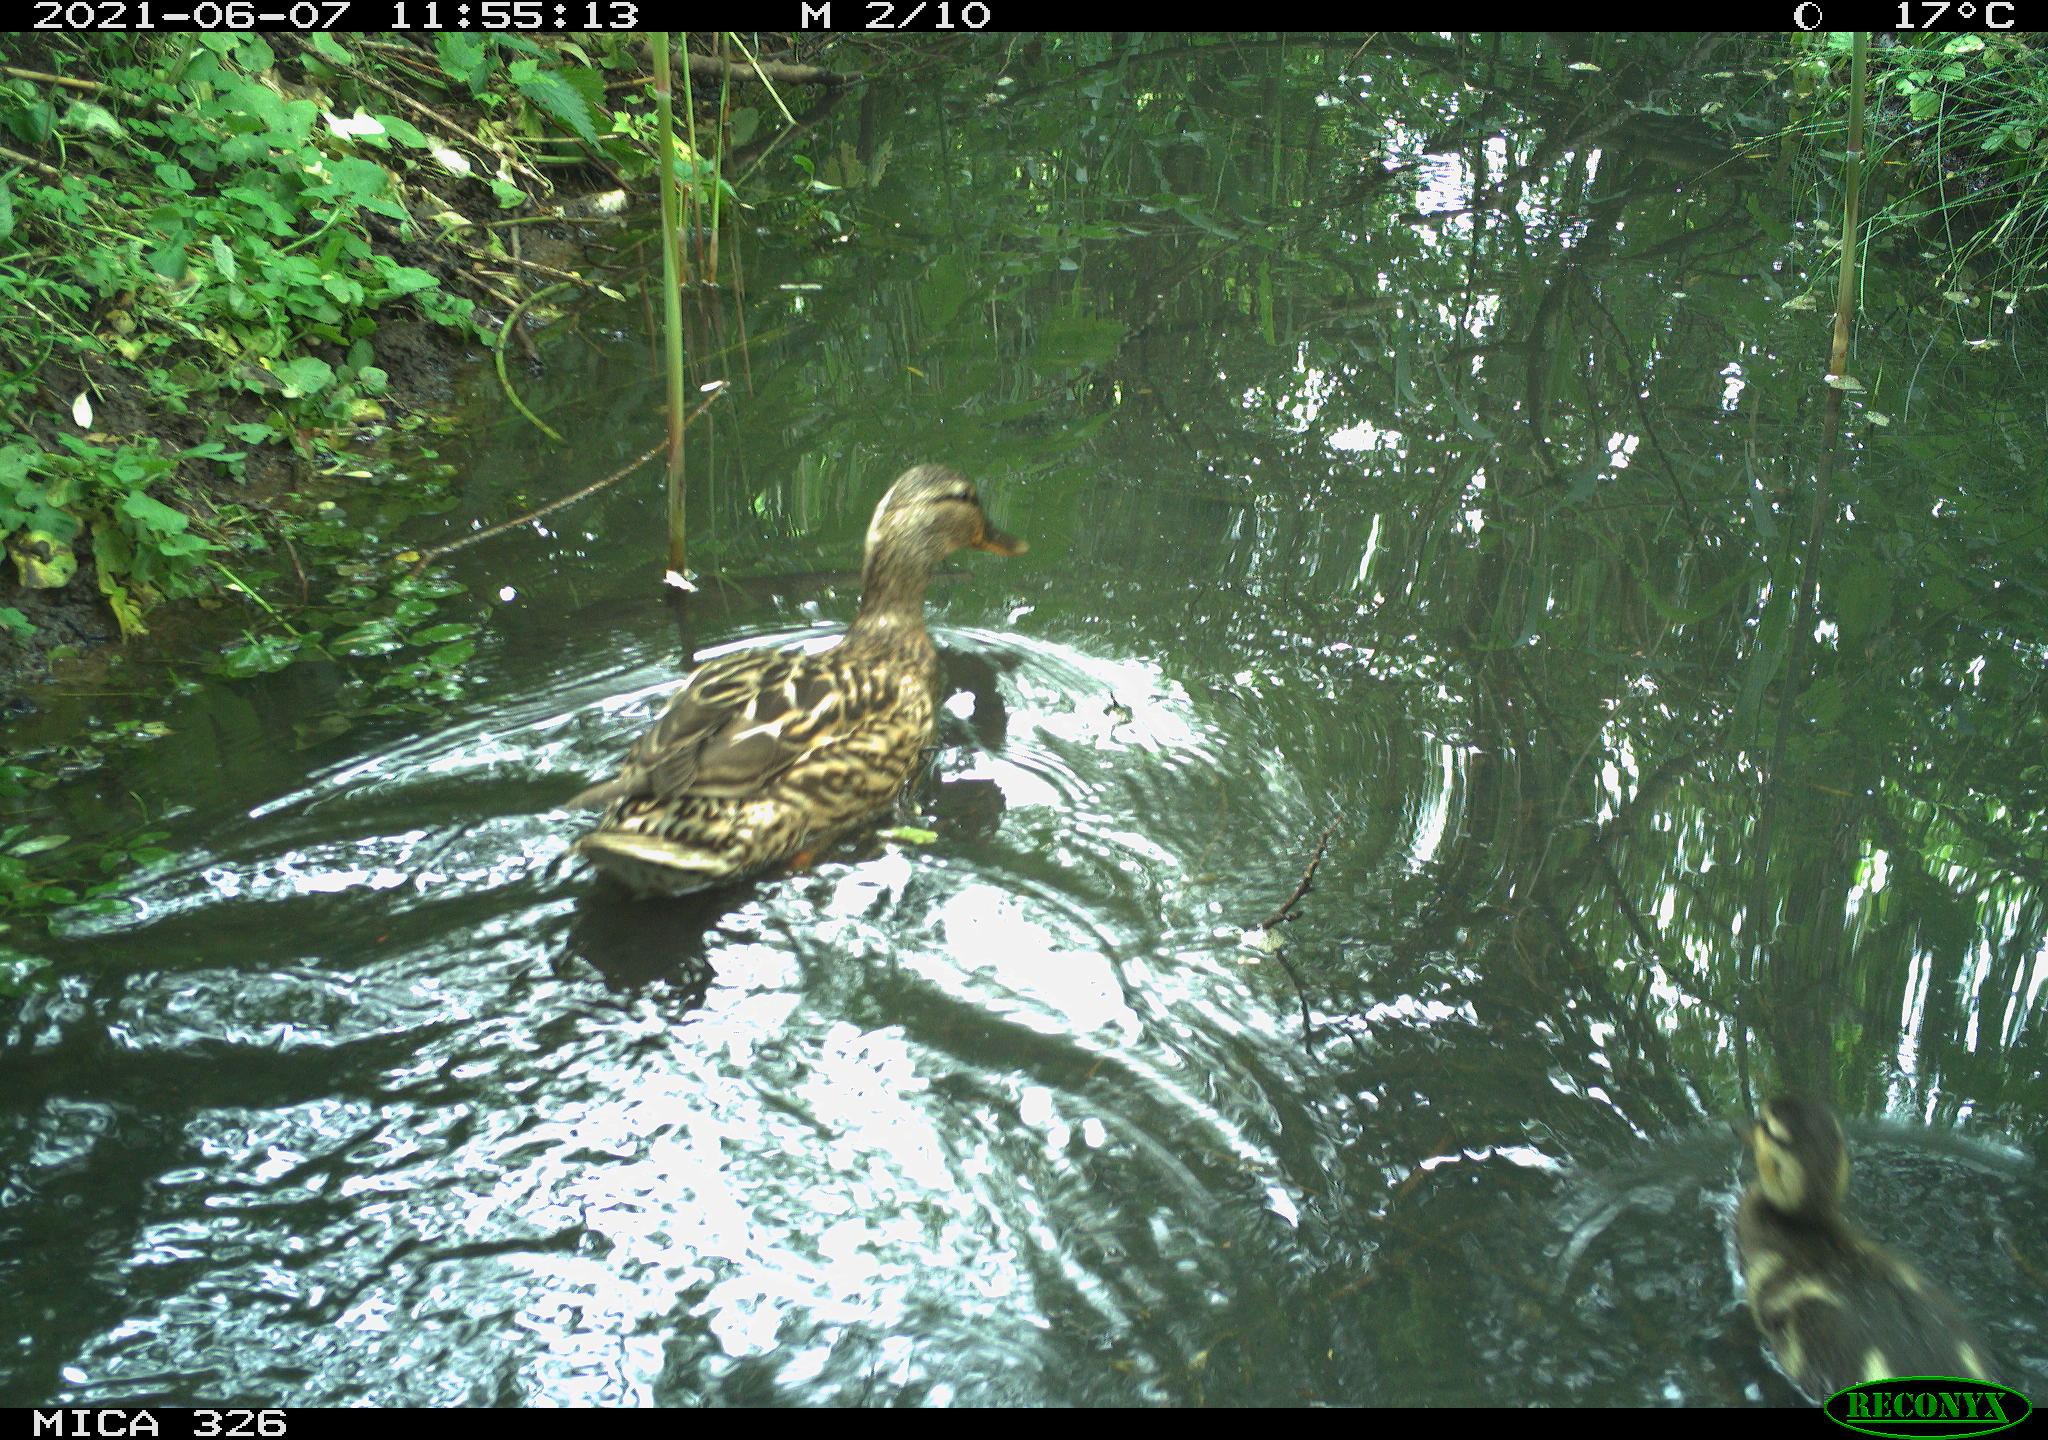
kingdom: Animalia
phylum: Chordata
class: Aves
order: Anseriformes
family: Anatidae
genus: Anas
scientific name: Anas platyrhynchos
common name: Mallard
